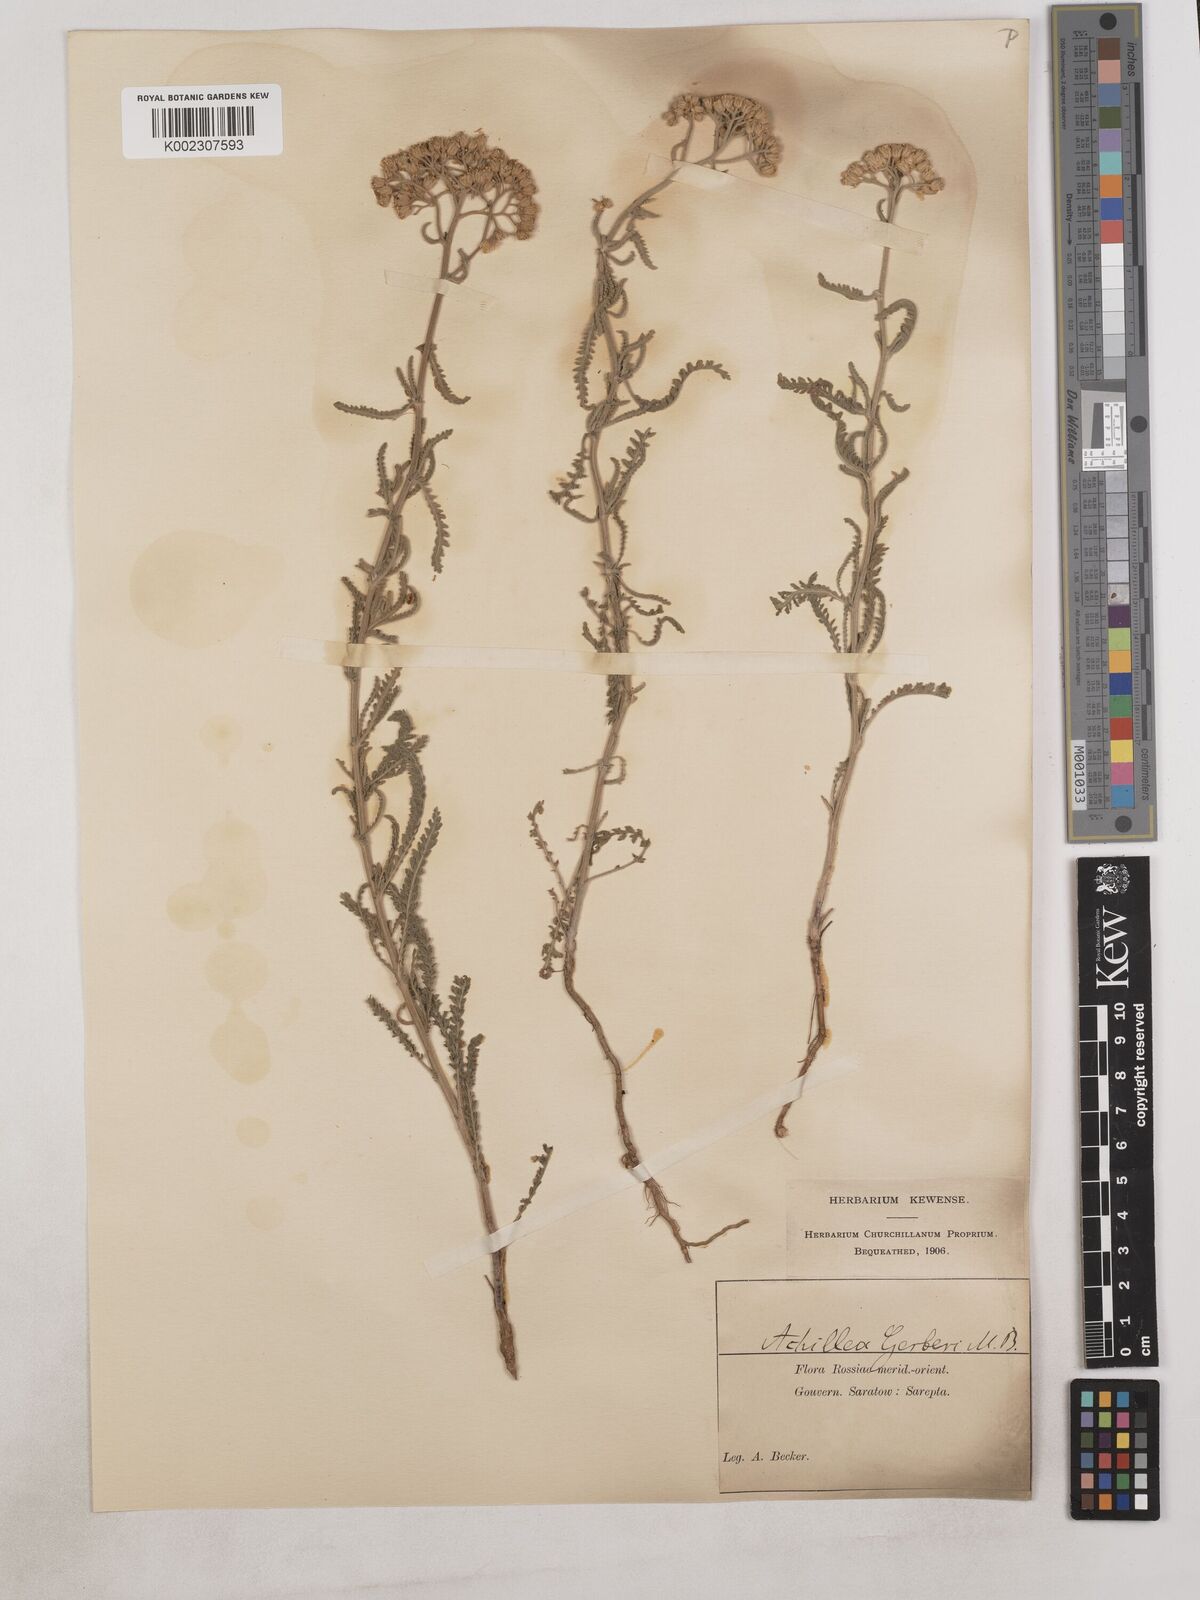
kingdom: Plantae
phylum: Tracheophyta
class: Magnoliopsida
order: Asterales
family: Asteraceae
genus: Achillea
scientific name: Achillea
